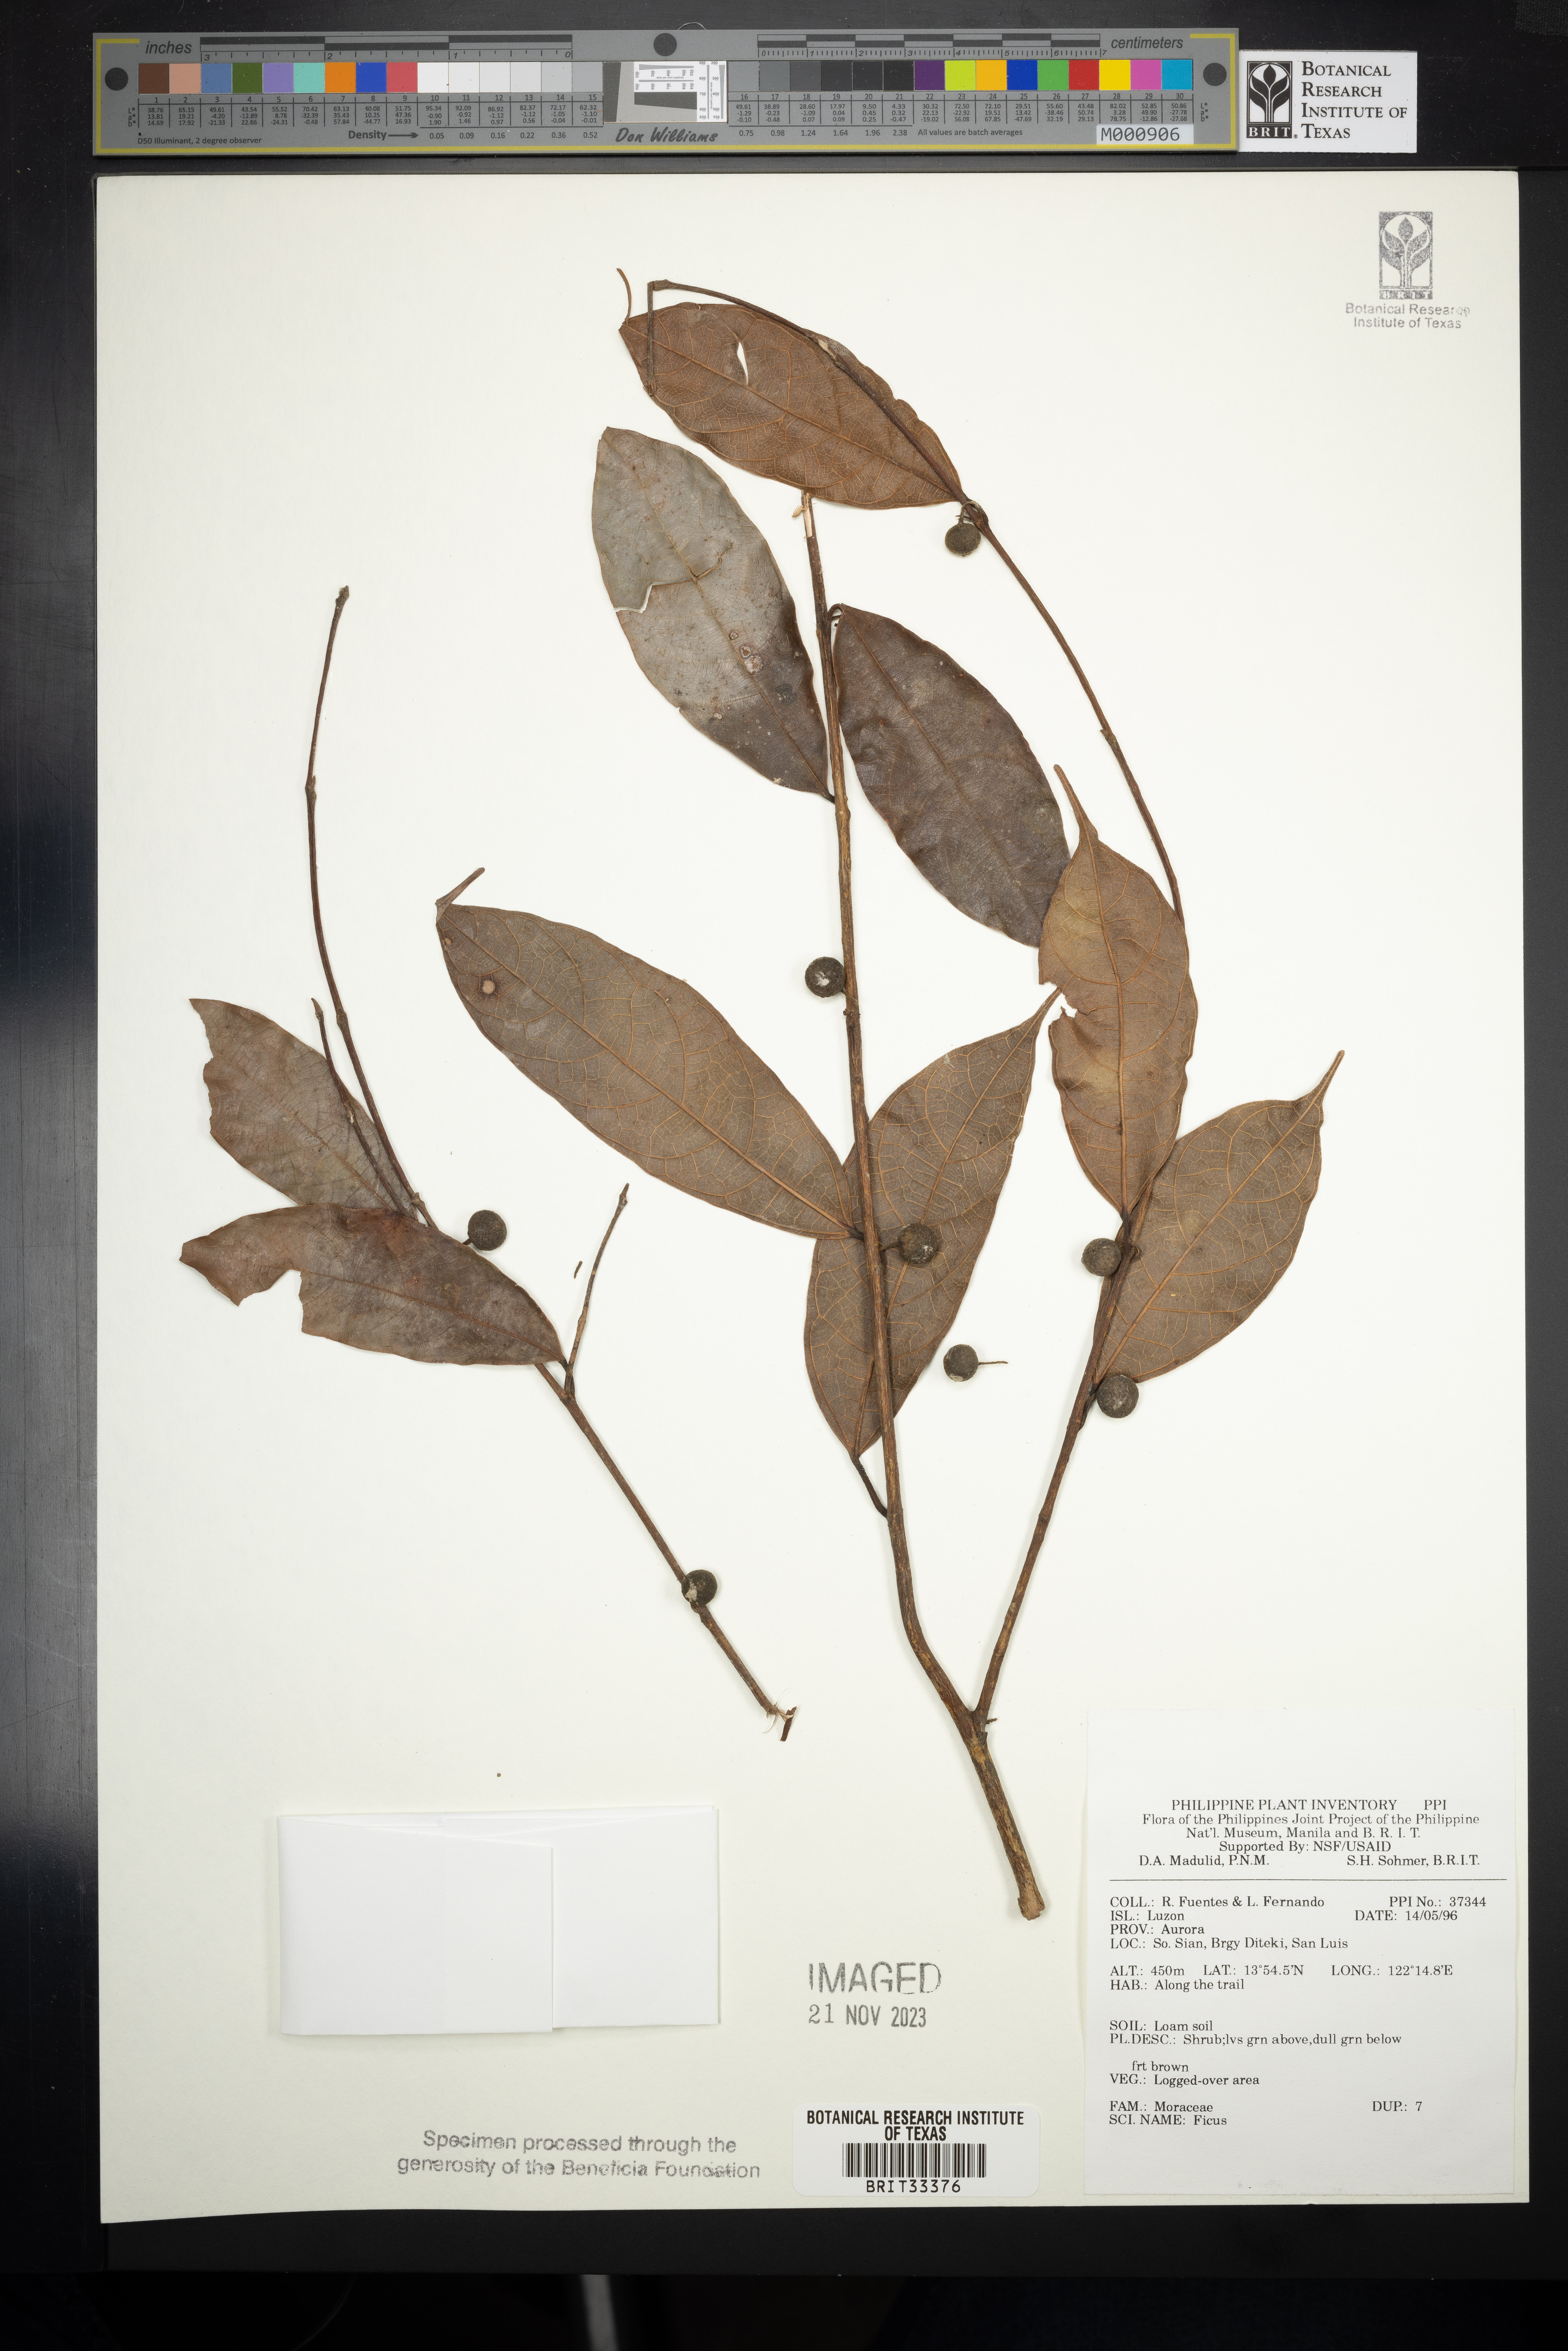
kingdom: Plantae
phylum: Tracheophyta
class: Magnoliopsida
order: Rosales
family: Moraceae
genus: Ficus
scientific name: Ficus
